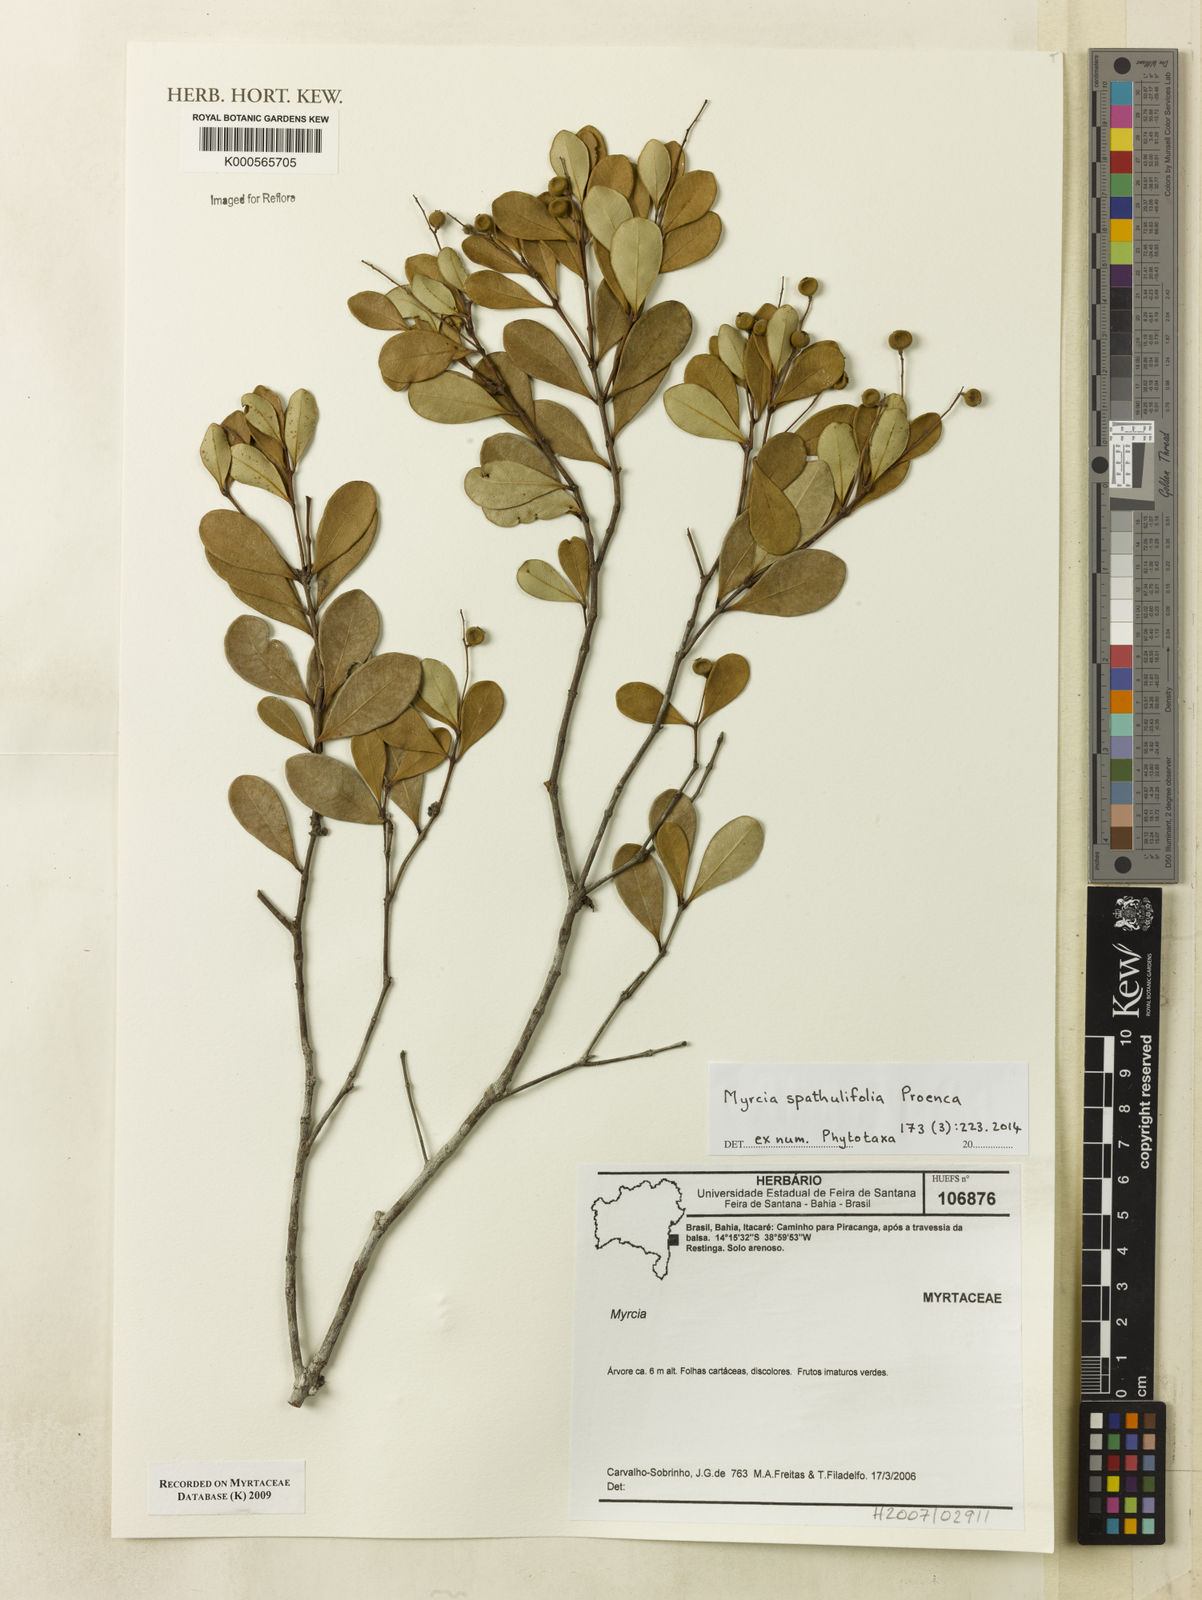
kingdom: Plantae
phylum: Tracheophyta
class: Magnoliopsida
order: Myrtales
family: Myrtaceae
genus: Myrcia
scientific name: Myrcia spathulifolia
